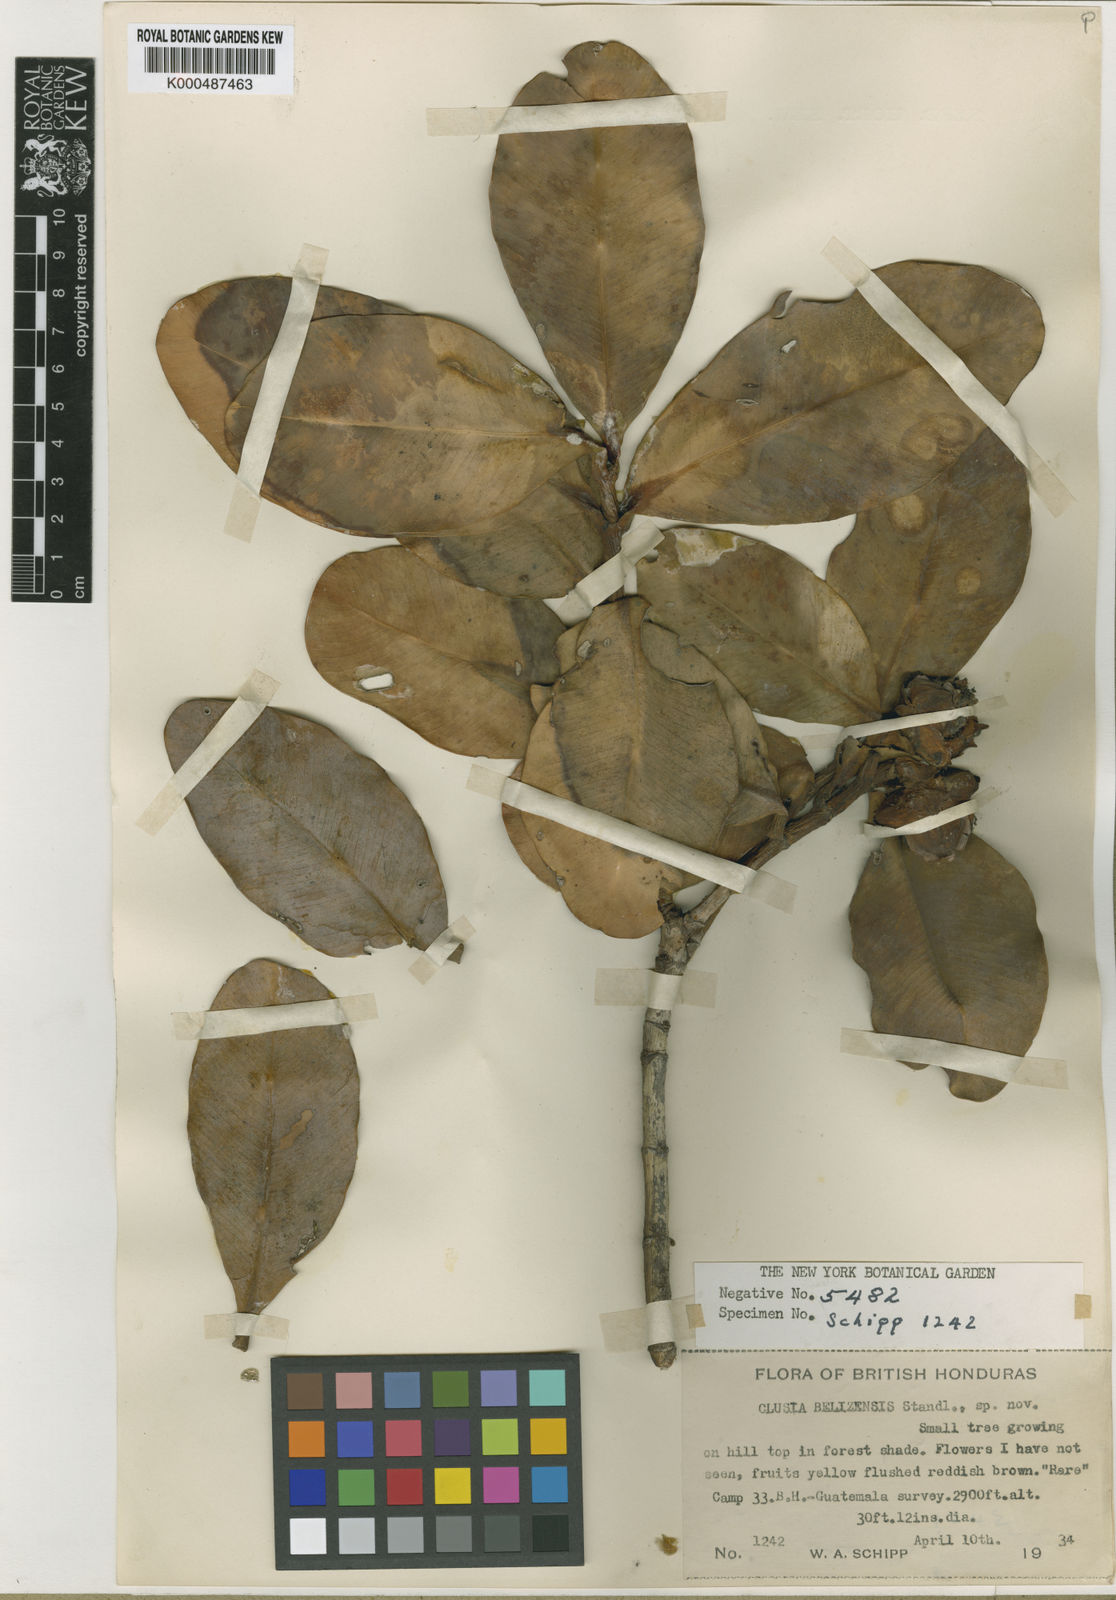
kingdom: Plantae
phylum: Tracheophyta
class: Magnoliopsida
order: Malpighiales
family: Clusiaceae
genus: Clusia
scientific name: Clusia belizensis
